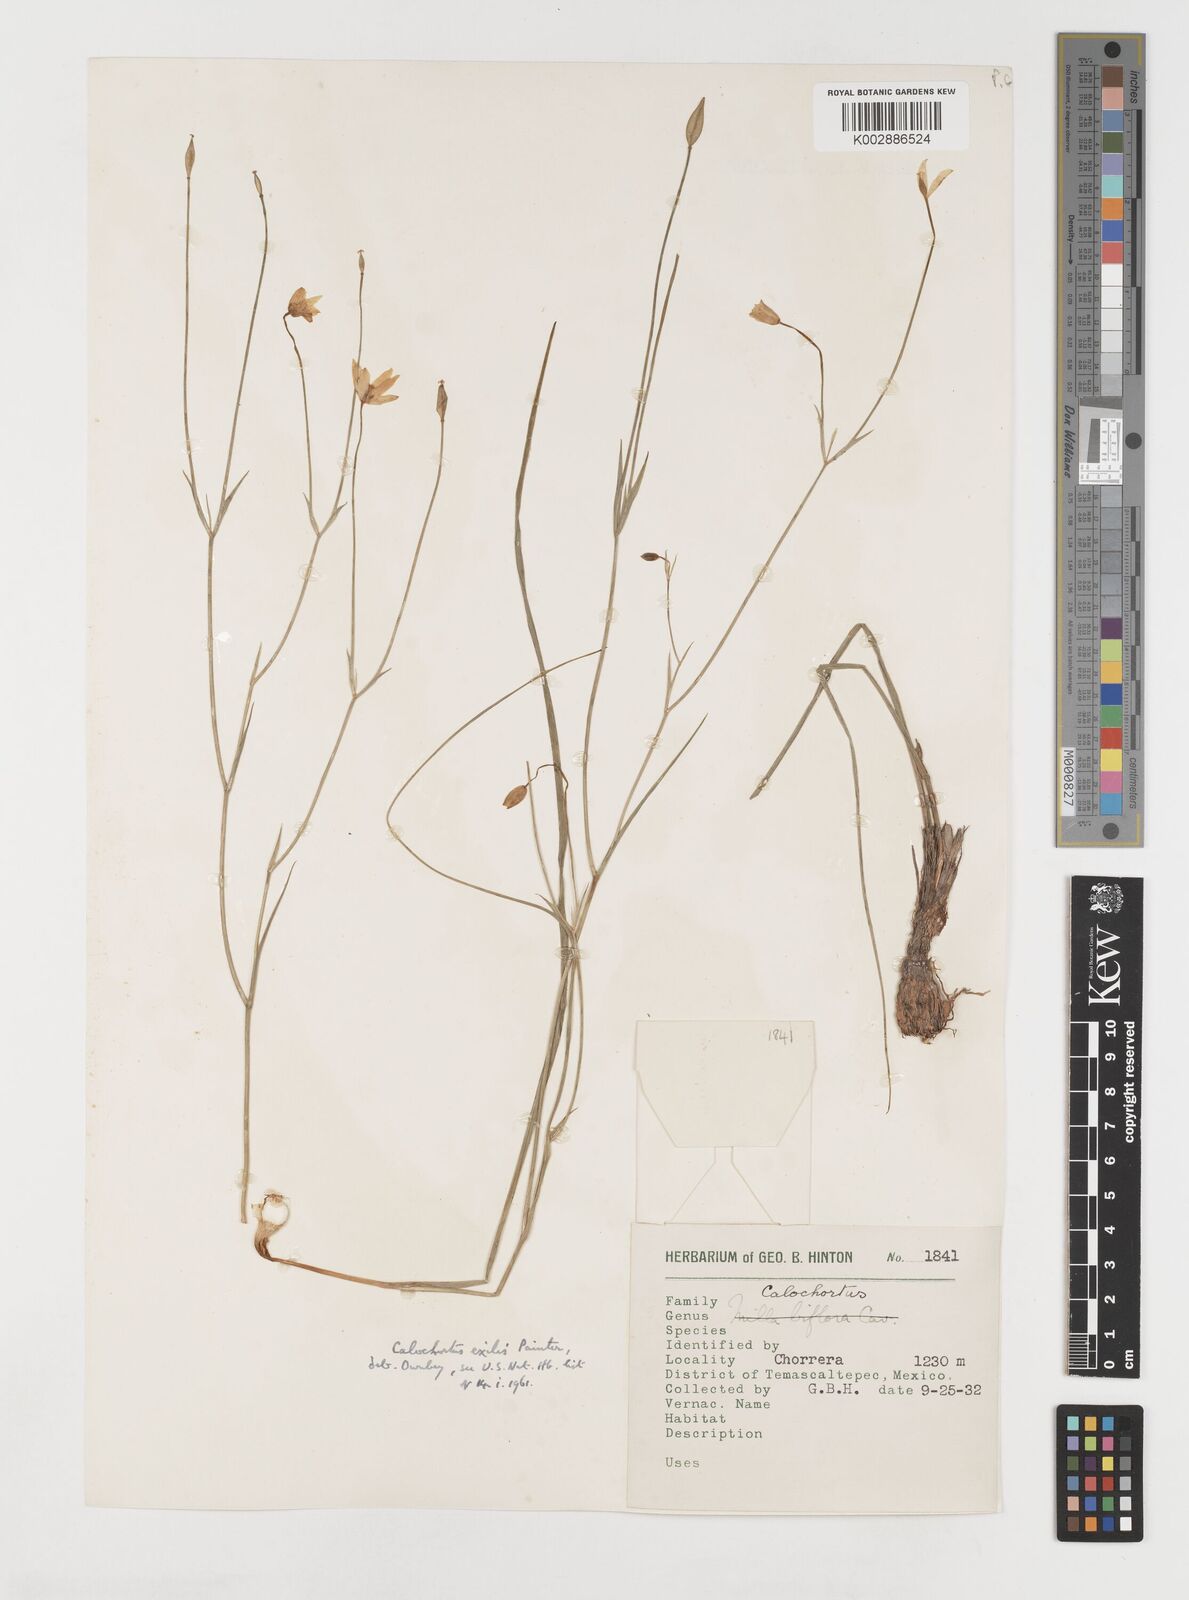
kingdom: Plantae
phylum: Tracheophyta
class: Liliopsida
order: Liliales
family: Liliaceae
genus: Calochortus
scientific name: Calochortus exilis
